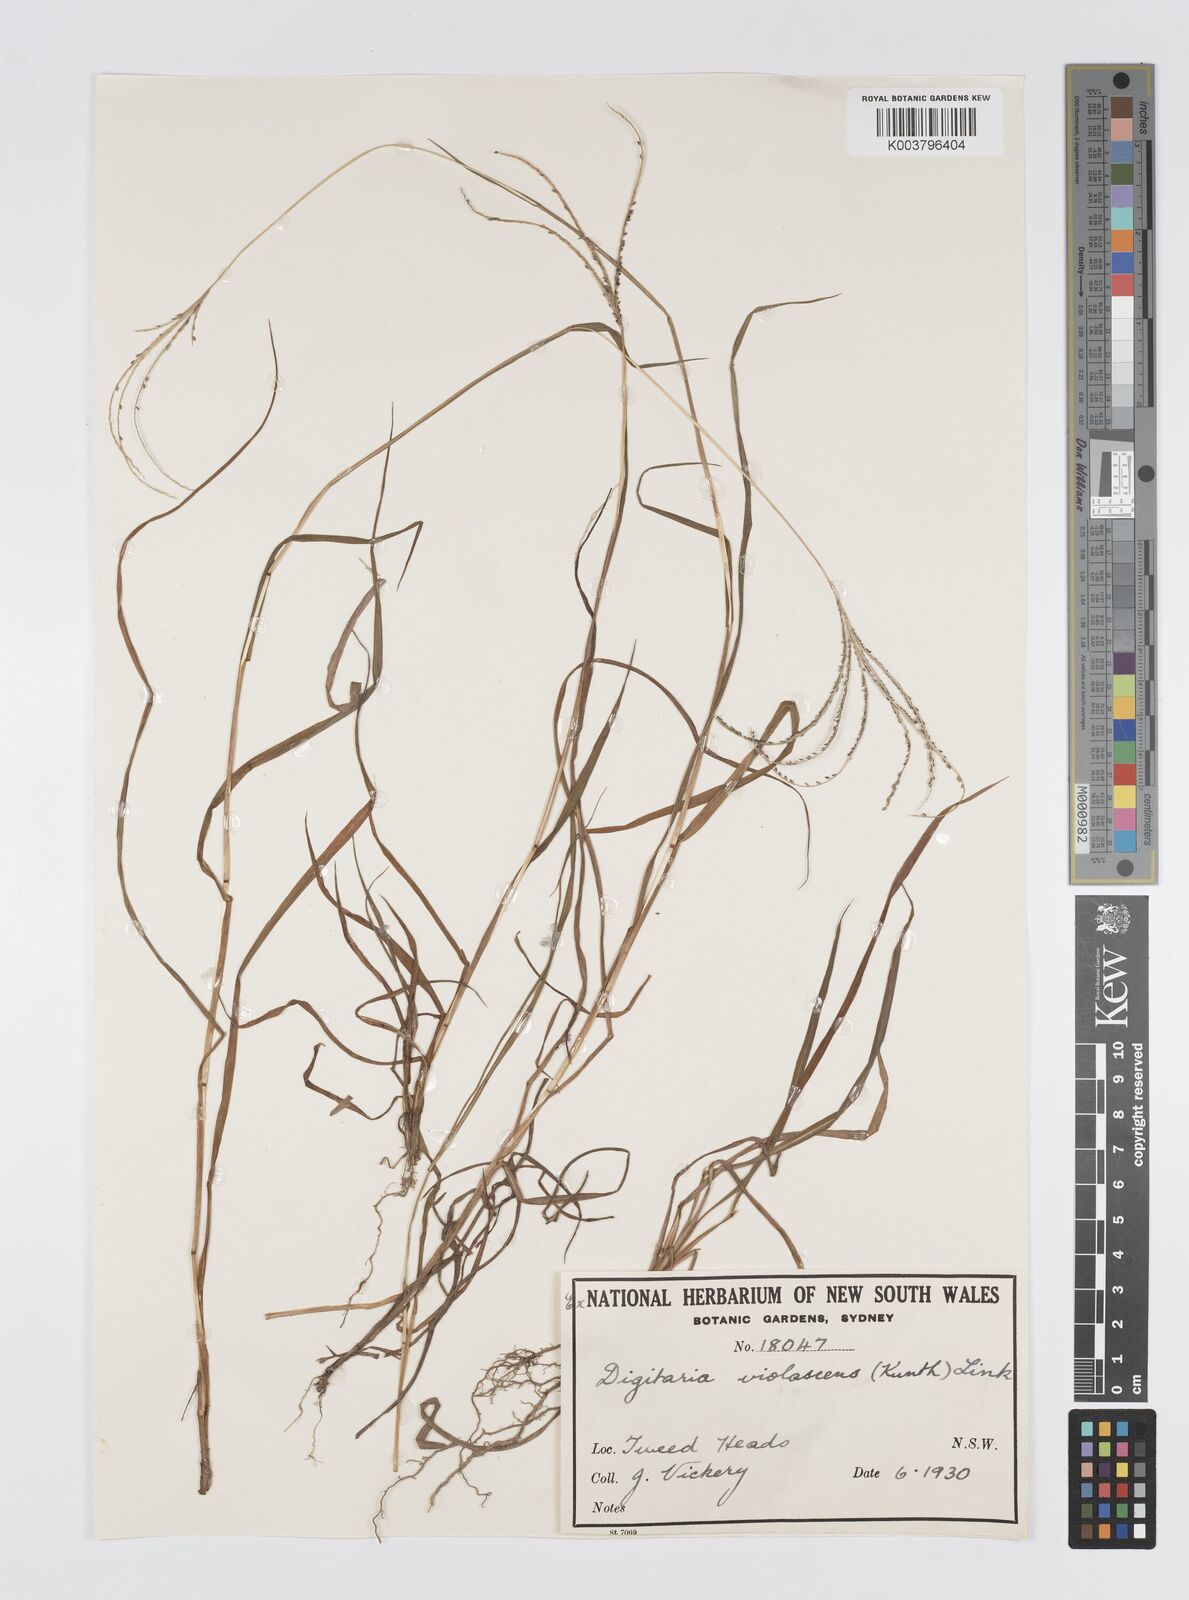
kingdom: Plantae
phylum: Tracheophyta
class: Liliopsida
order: Poales
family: Poaceae
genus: Digitaria
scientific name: Digitaria violascens
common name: Violet crabgrass
